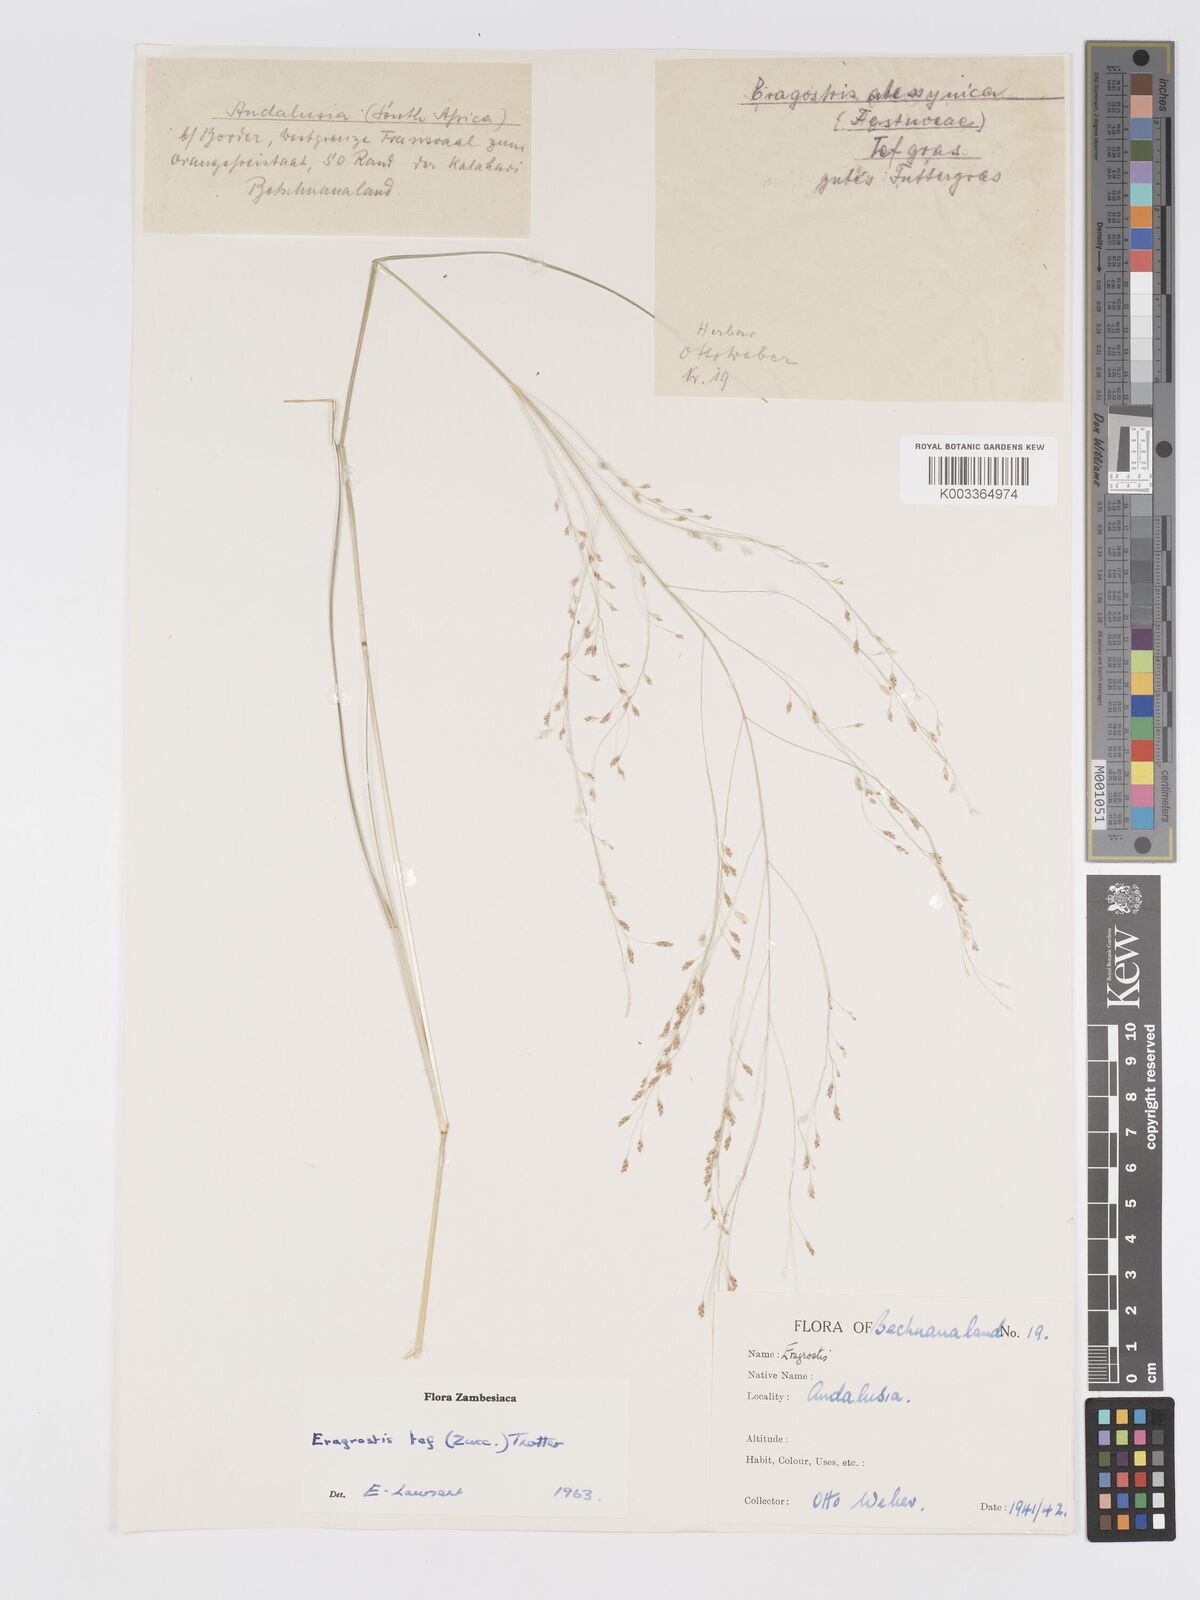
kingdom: Plantae
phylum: Tracheophyta
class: Liliopsida
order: Poales
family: Poaceae
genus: Eragrostis
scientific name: Eragrostis tef
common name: Teff
